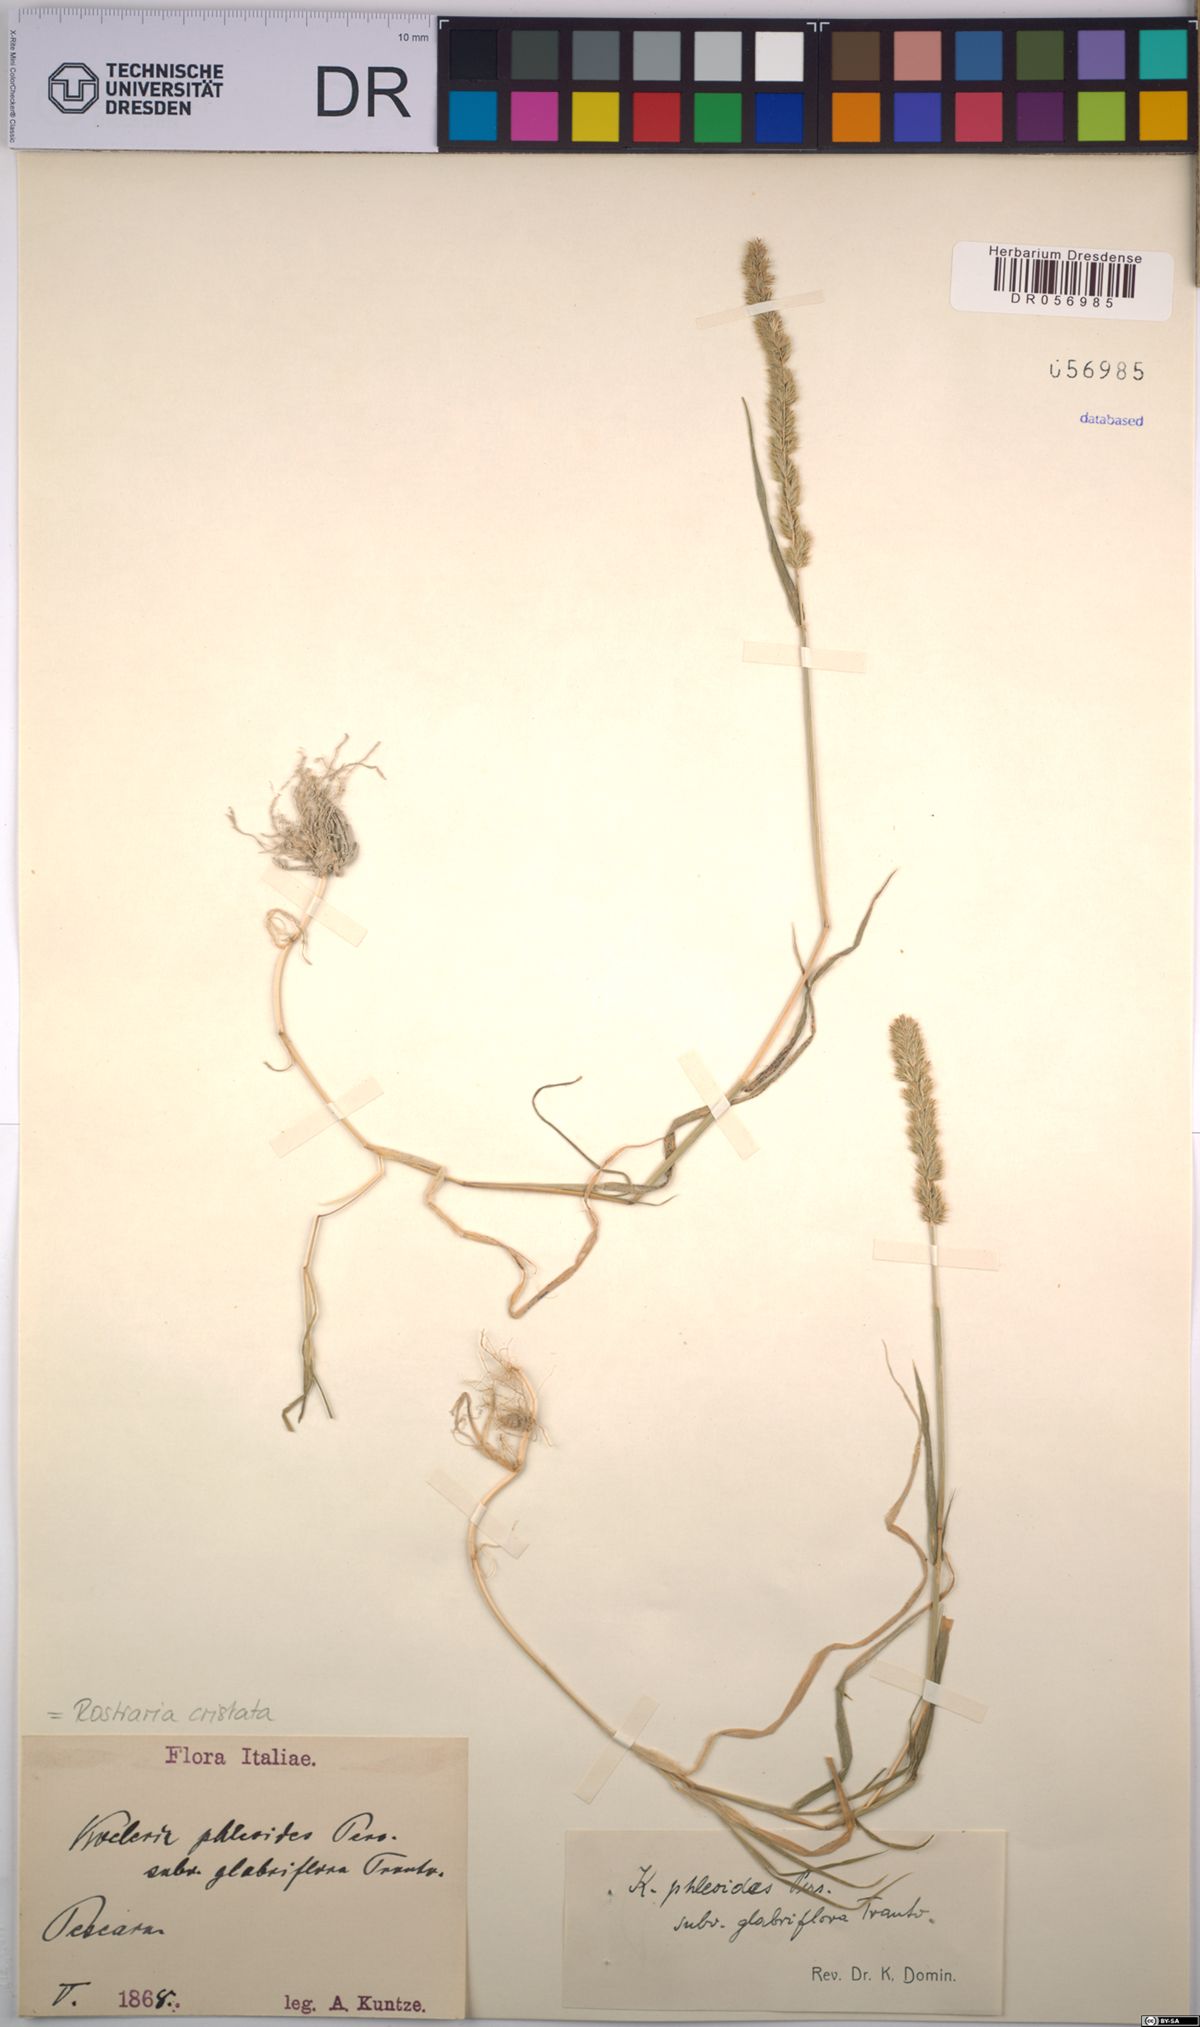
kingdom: Plantae
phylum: Tracheophyta
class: Liliopsida
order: Poales
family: Poaceae
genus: Rostraria
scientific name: Rostraria cristata
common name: Mediterranean hair-grass
